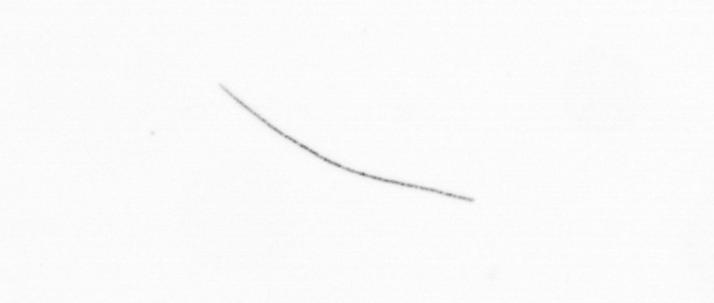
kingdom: Chromista
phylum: Ochrophyta
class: Bacillariophyceae
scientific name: Bacillariophyceae
